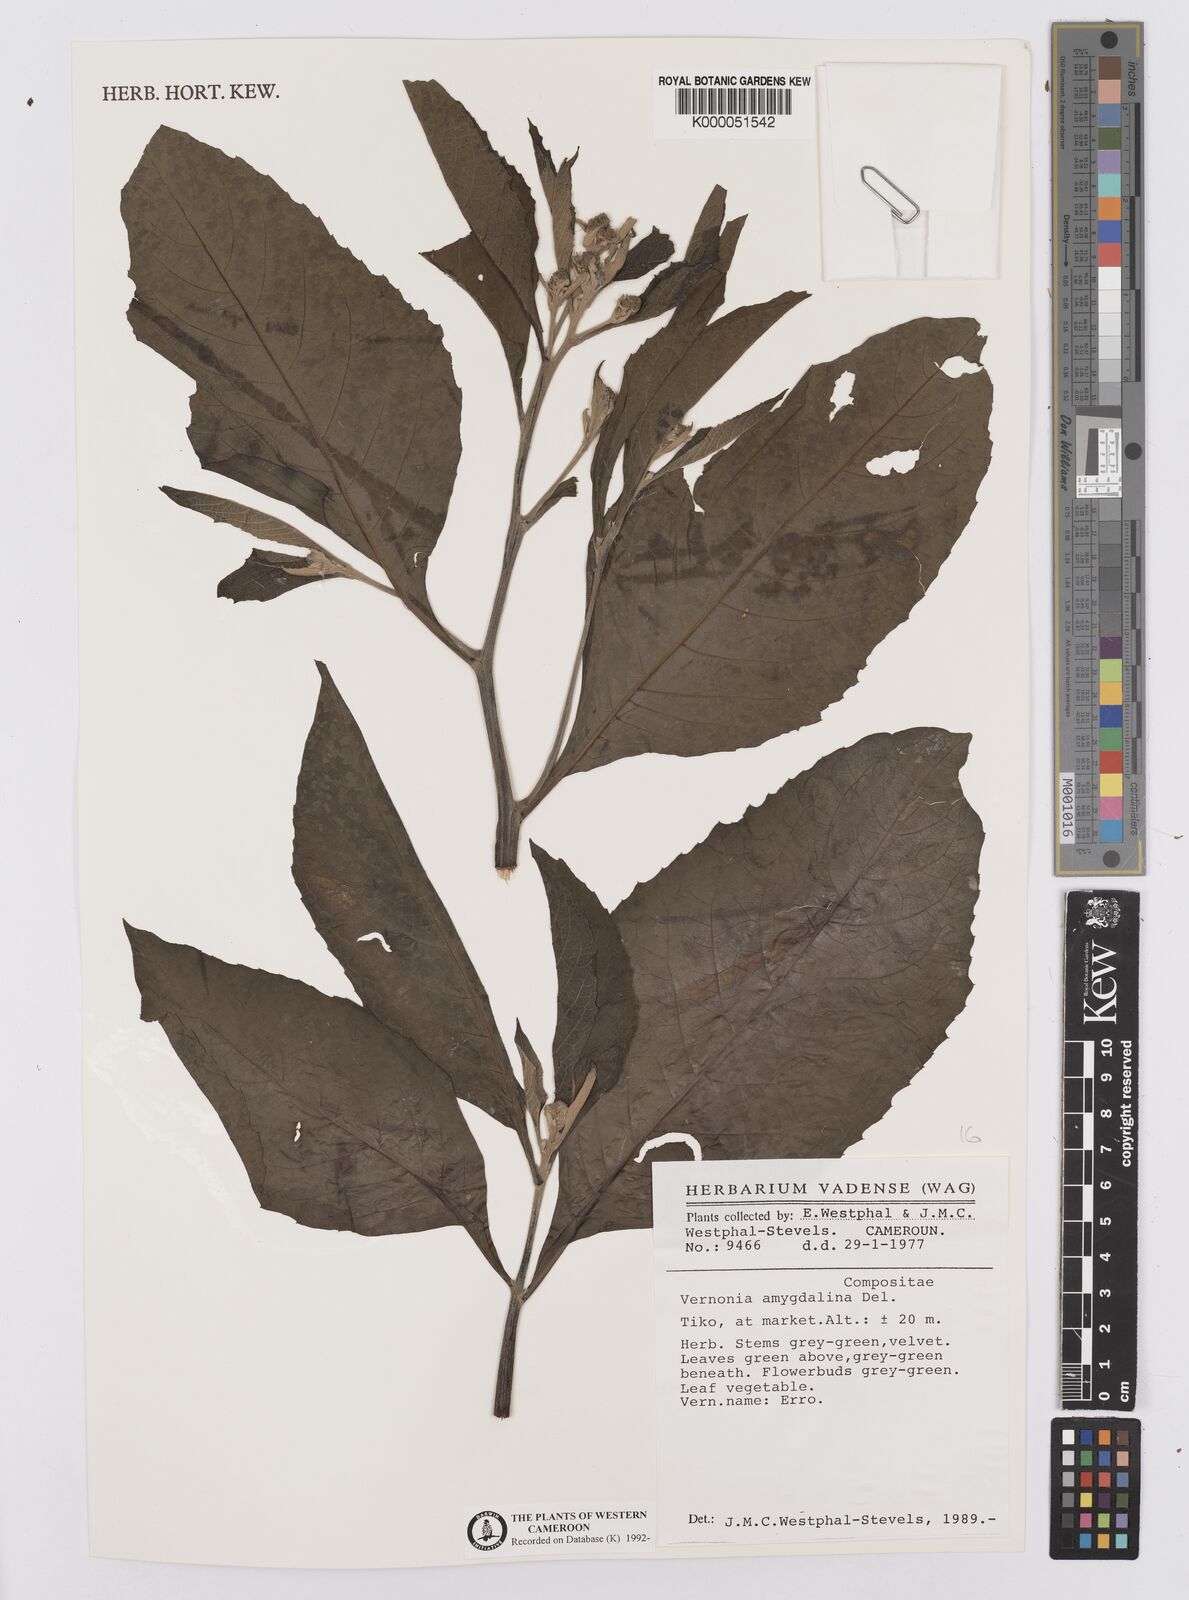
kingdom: Plantae
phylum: Tracheophyta
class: Magnoliopsida
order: Asterales
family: Asteraceae
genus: Gymnanthemum
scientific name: Gymnanthemum amygdalinum
